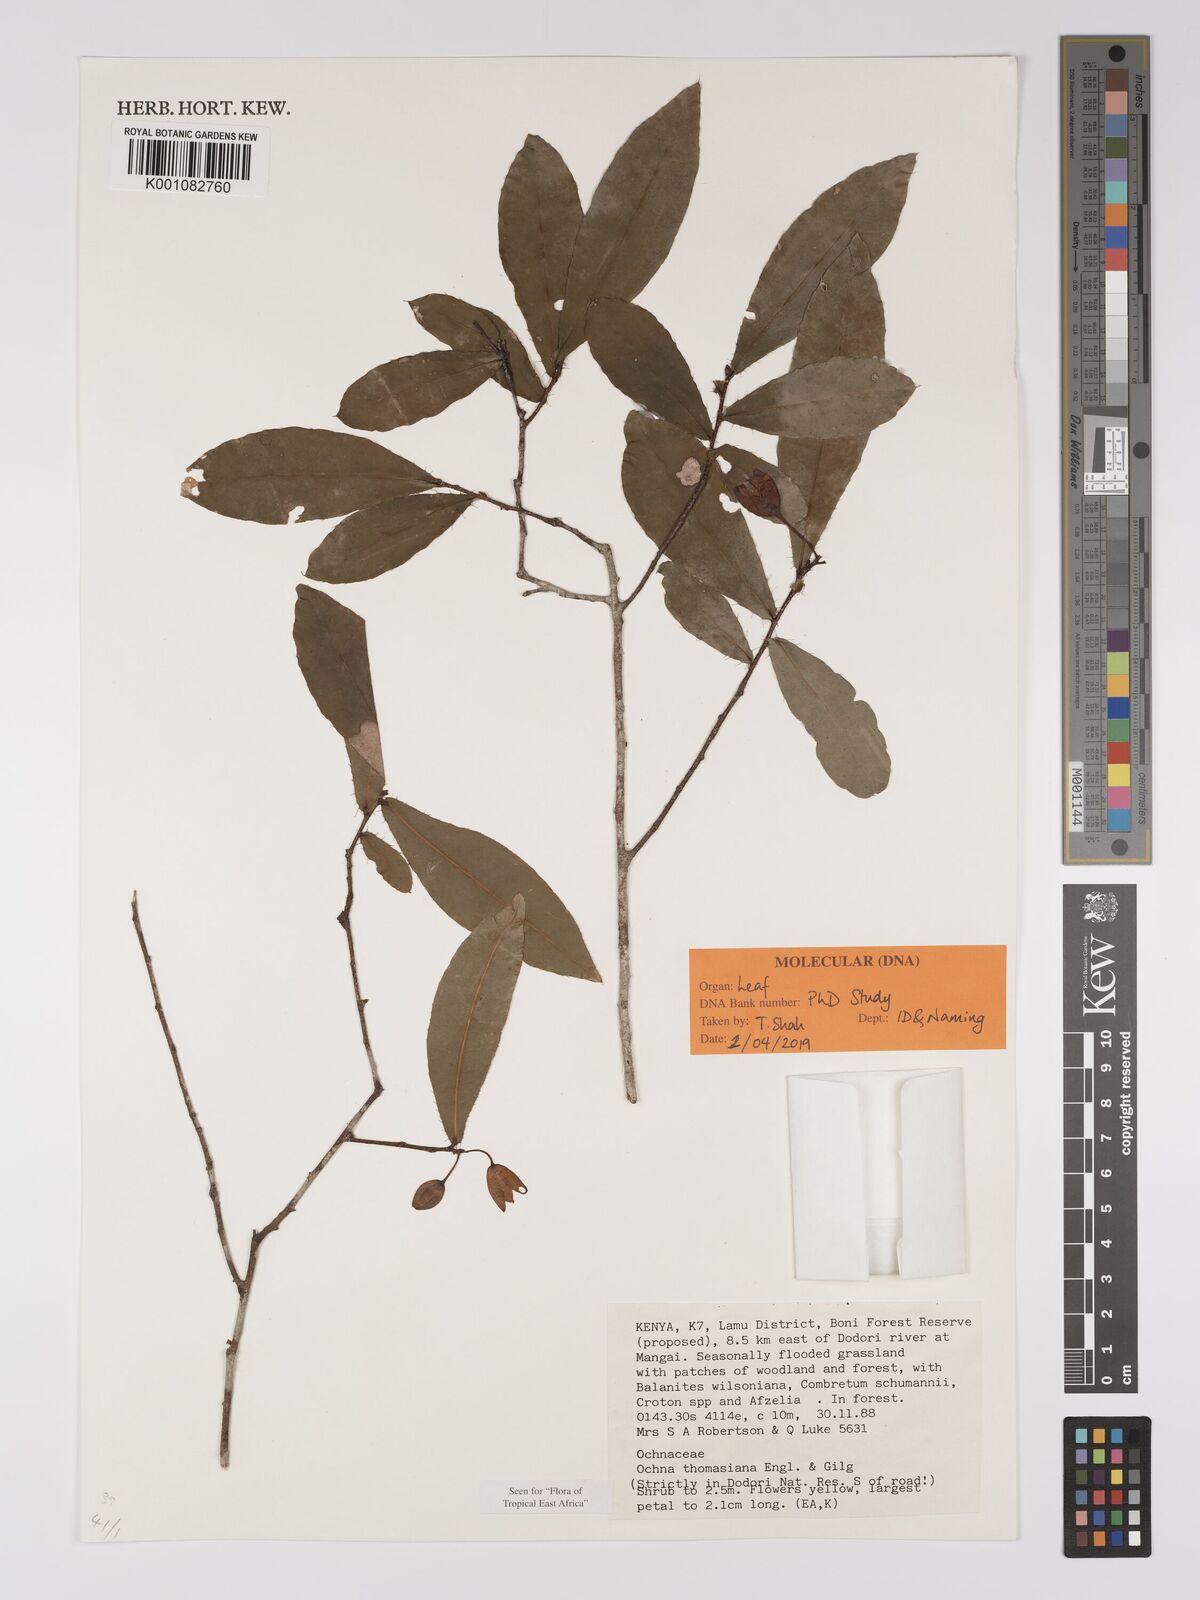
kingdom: Plantae
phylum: Tracheophyta
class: Magnoliopsida
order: Malpighiales
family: Ochnaceae
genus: Ochna
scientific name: Ochna thomasiana
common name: Thomas' bird's-eye bush
